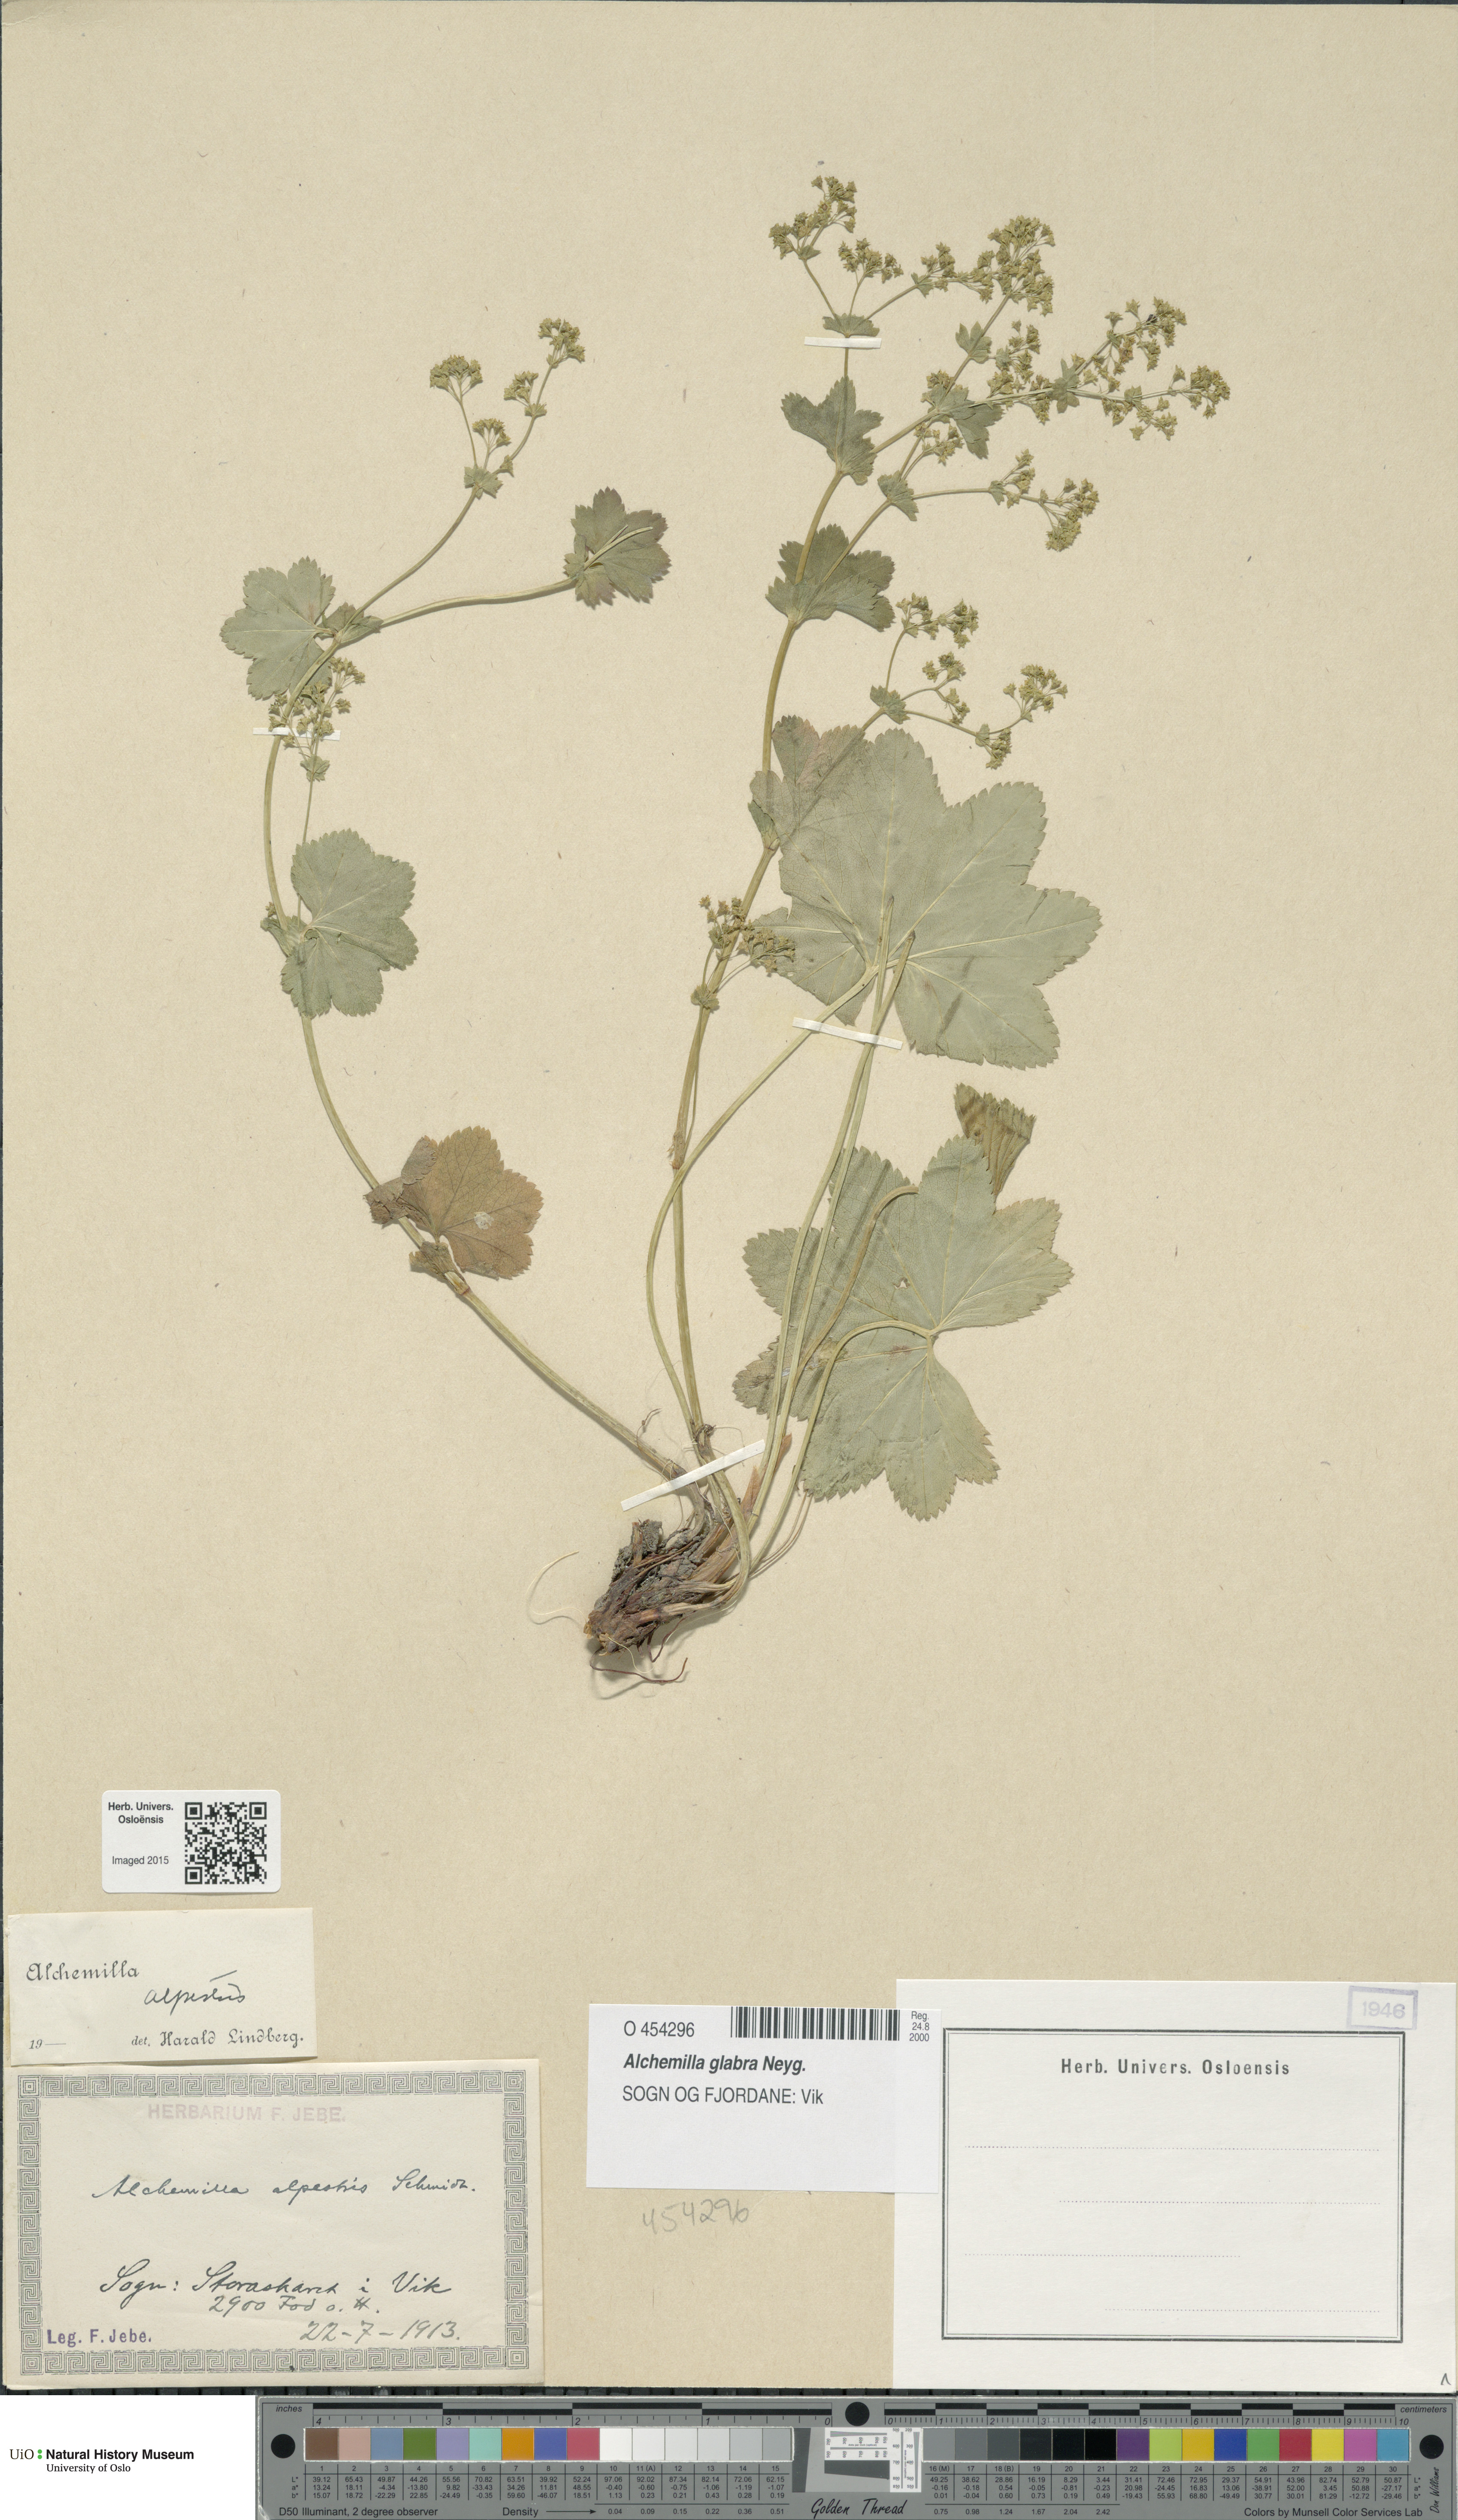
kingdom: Plantae
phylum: Tracheophyta
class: Magnoliopsida
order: Rosales
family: Rosaceae
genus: Alchemilla
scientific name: Alchemilla glabra
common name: Smooth lady's-mantle
